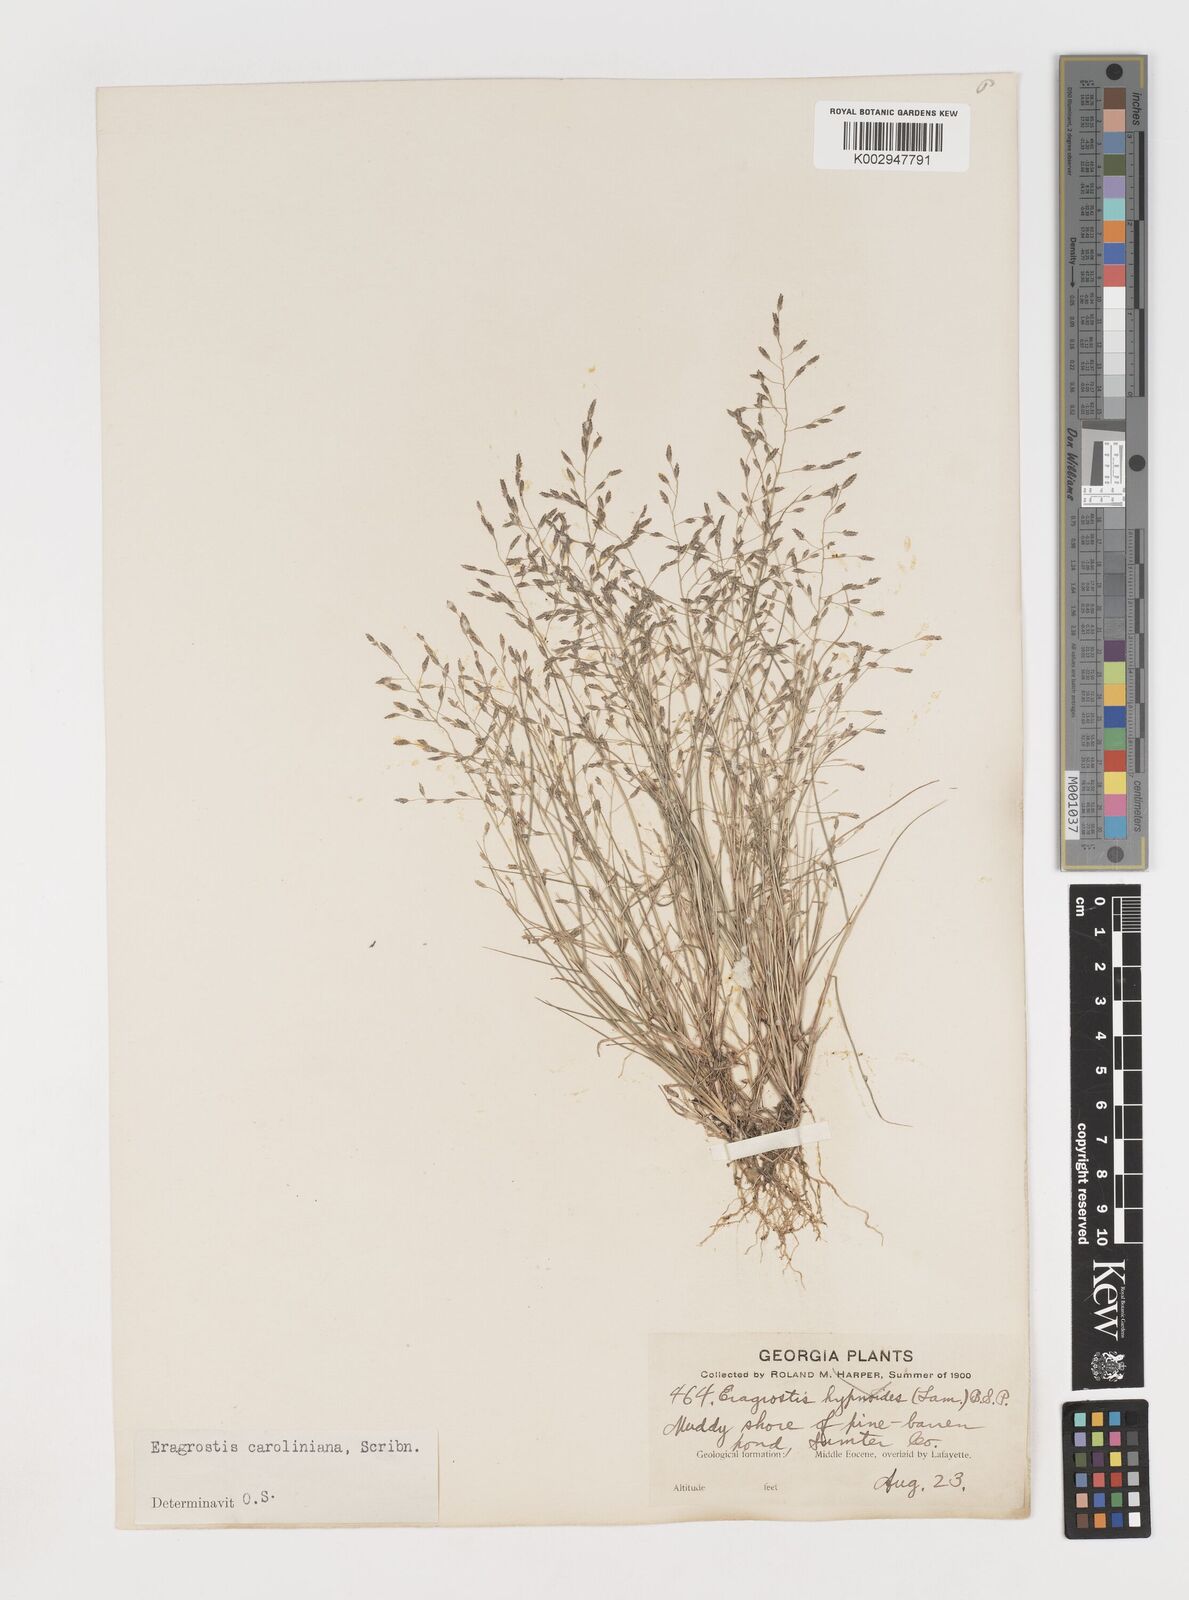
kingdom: Plantae
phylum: Tracheophyta
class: Liliopsida
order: Poales
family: Poaceae
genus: Eragrostis
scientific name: Eragrostis pectinacea
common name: Tufted lovegrass
